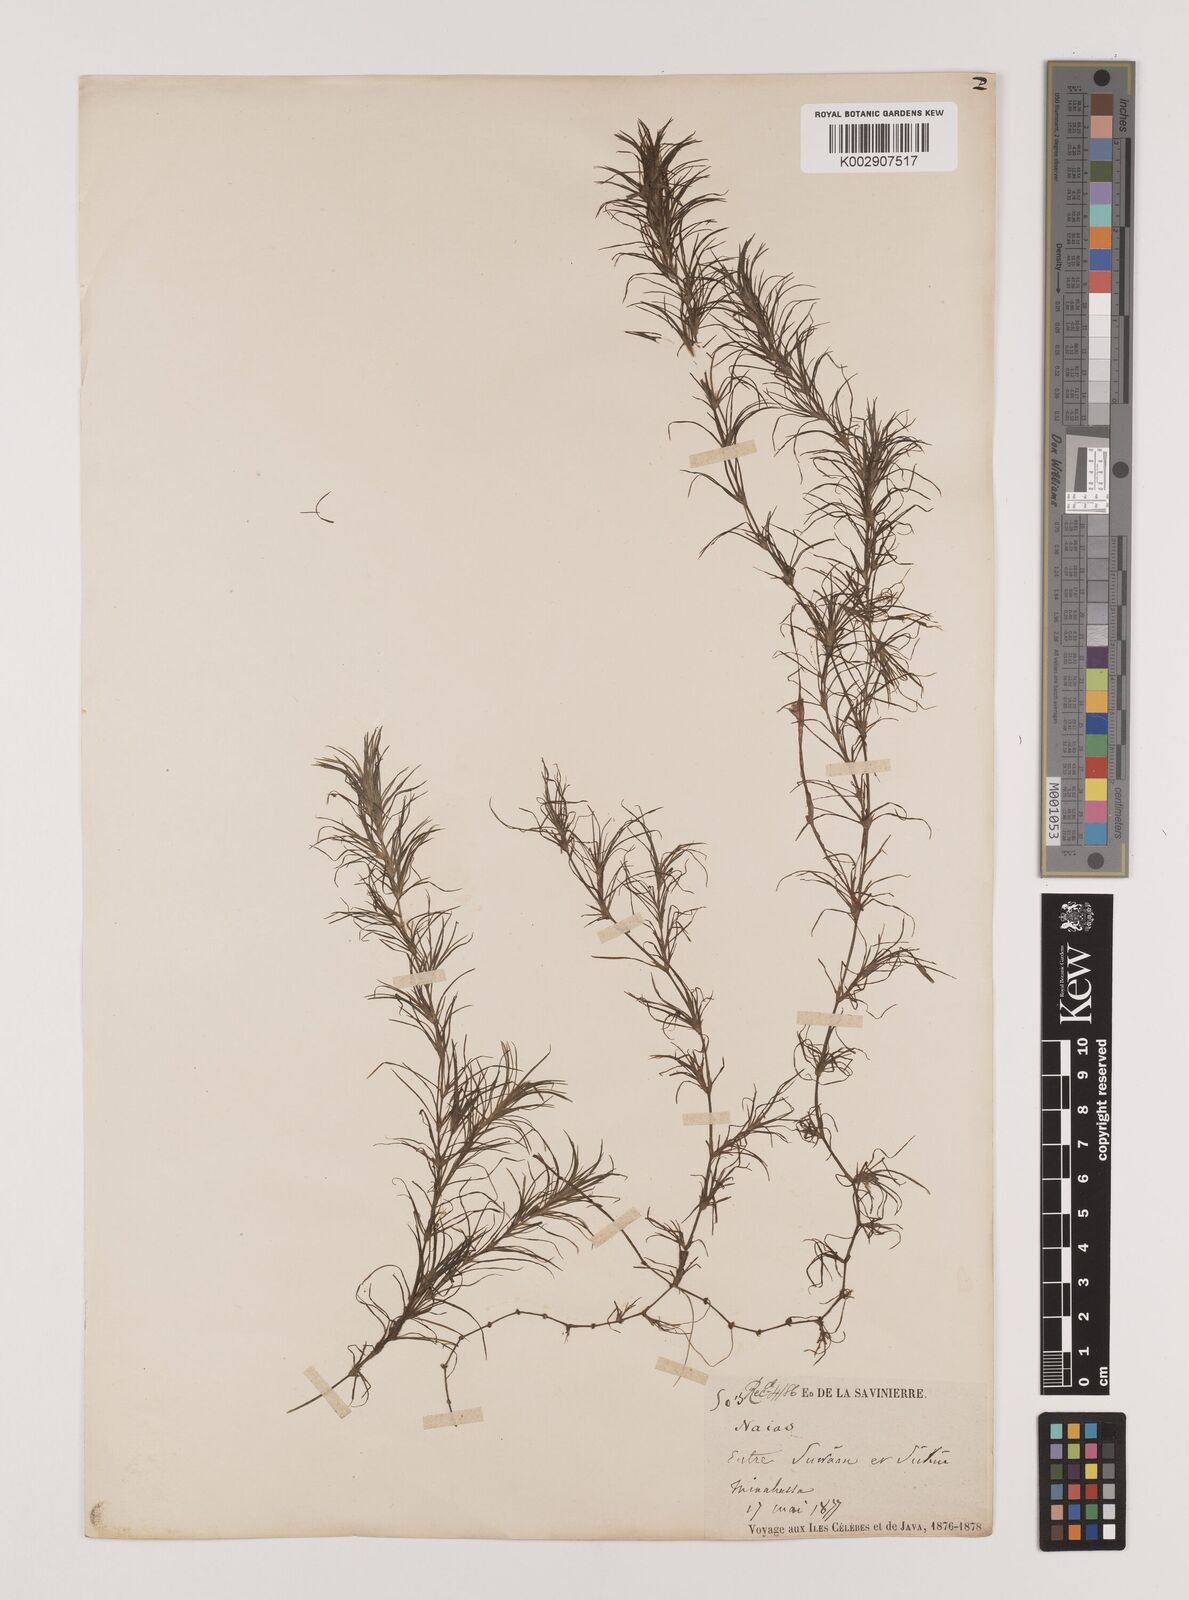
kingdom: Plantae
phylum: Tracheophyta
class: Liliopsida
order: Alismatales
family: Hydrocharitaceae
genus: Najas
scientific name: Najas graminea
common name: Ricefield waternymph
